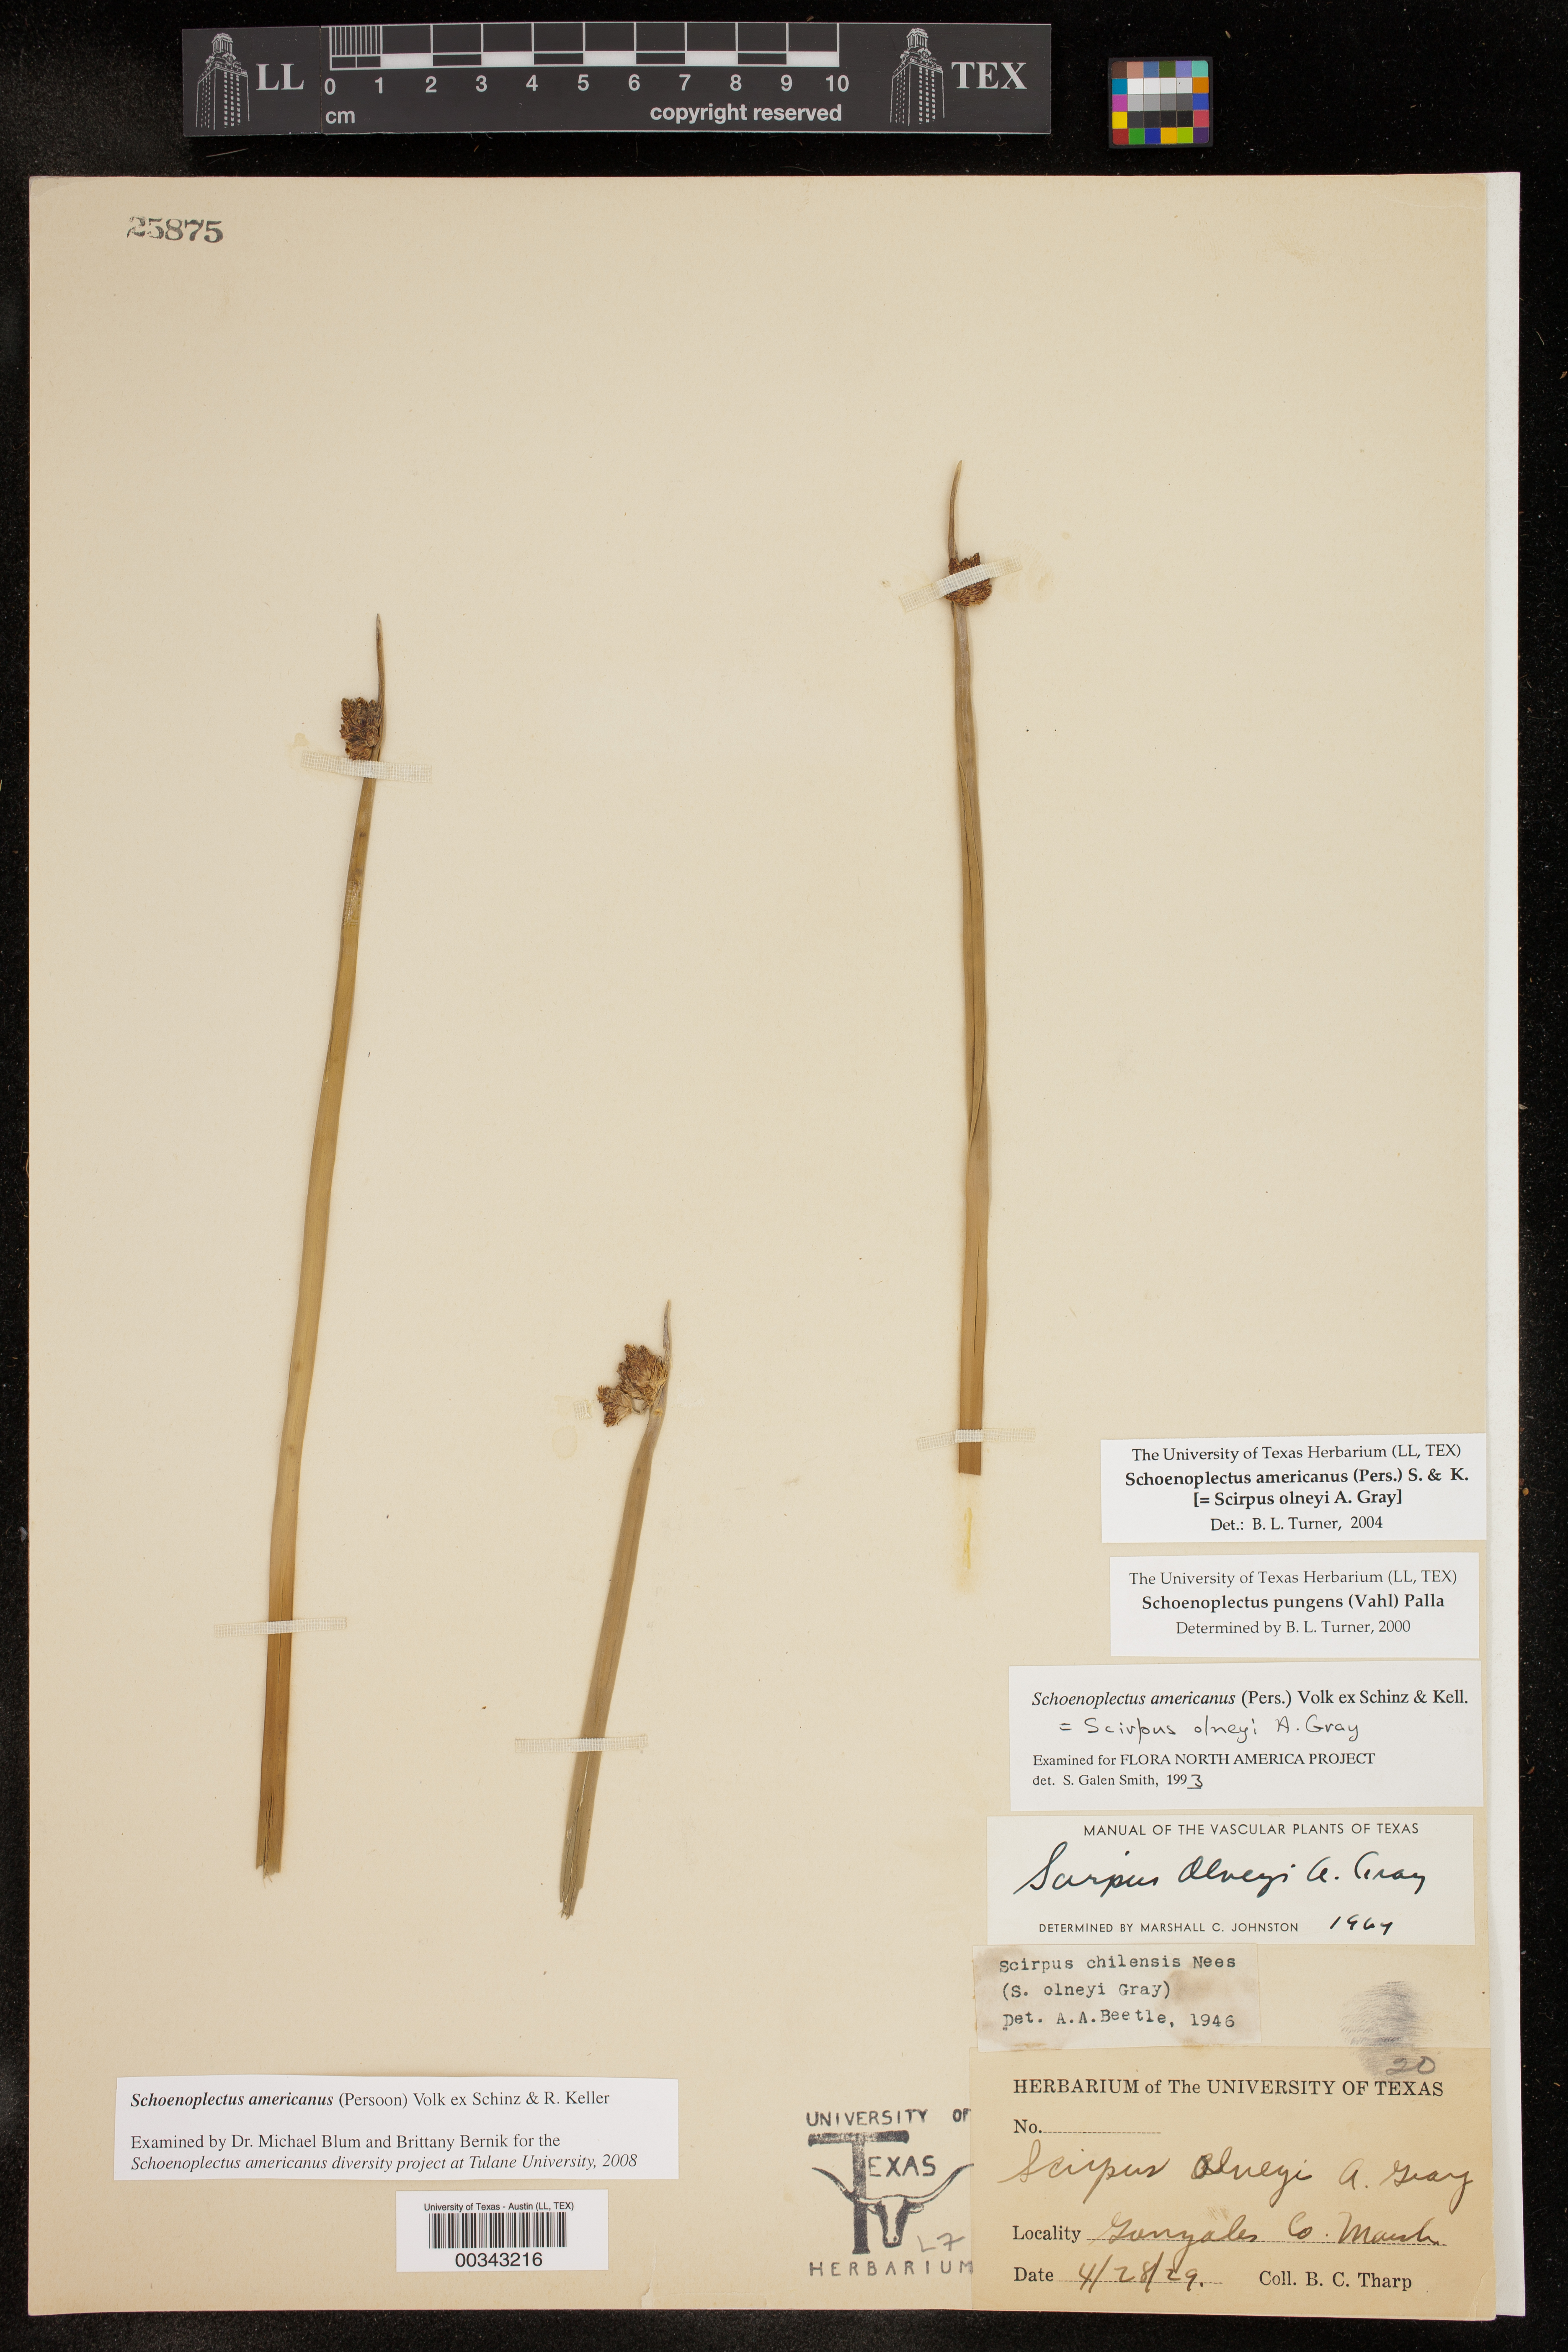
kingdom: Plantae
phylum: Tracheophyta
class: Liliopsida
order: Poales
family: Cyperaceae
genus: Schoenoplectus
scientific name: Schoenoplectus americanus
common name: American three-square bulrush
